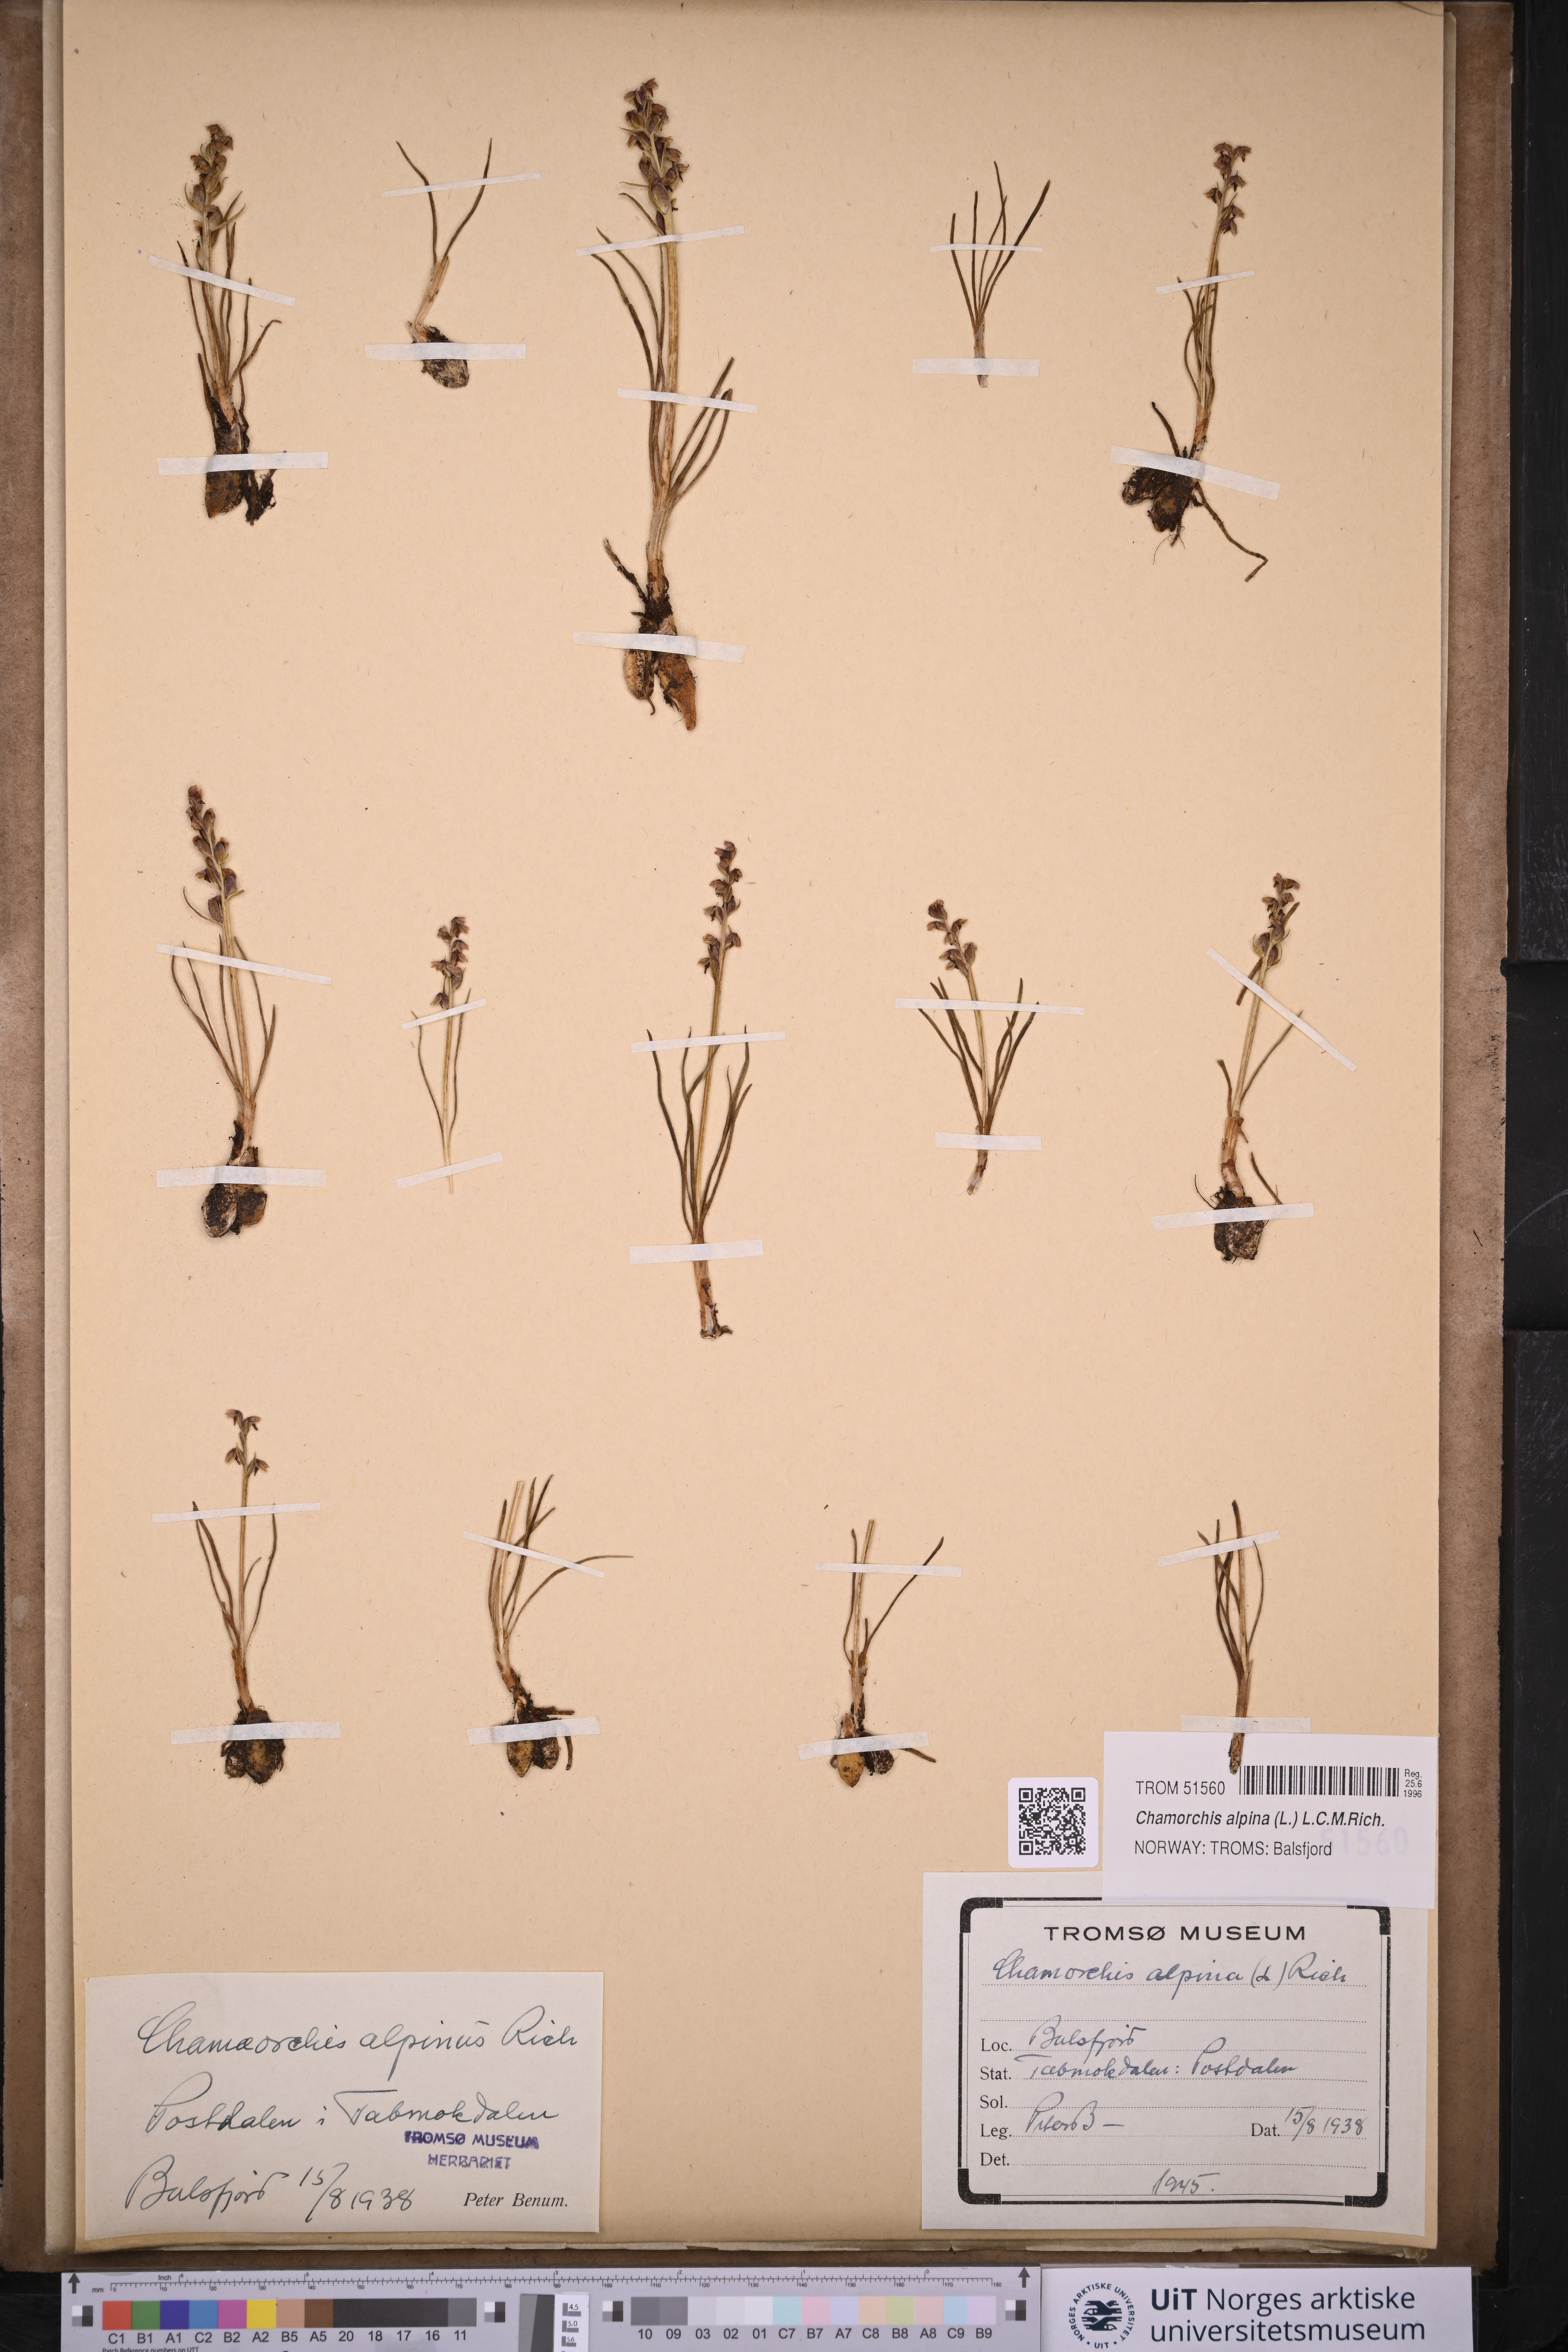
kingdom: Plantae
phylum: Tracheophyta
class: Liliopsida
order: Asparagales
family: Orchidaceae
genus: Chamorchis
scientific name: Chamorchis alpina
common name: Alpine chamorchis
